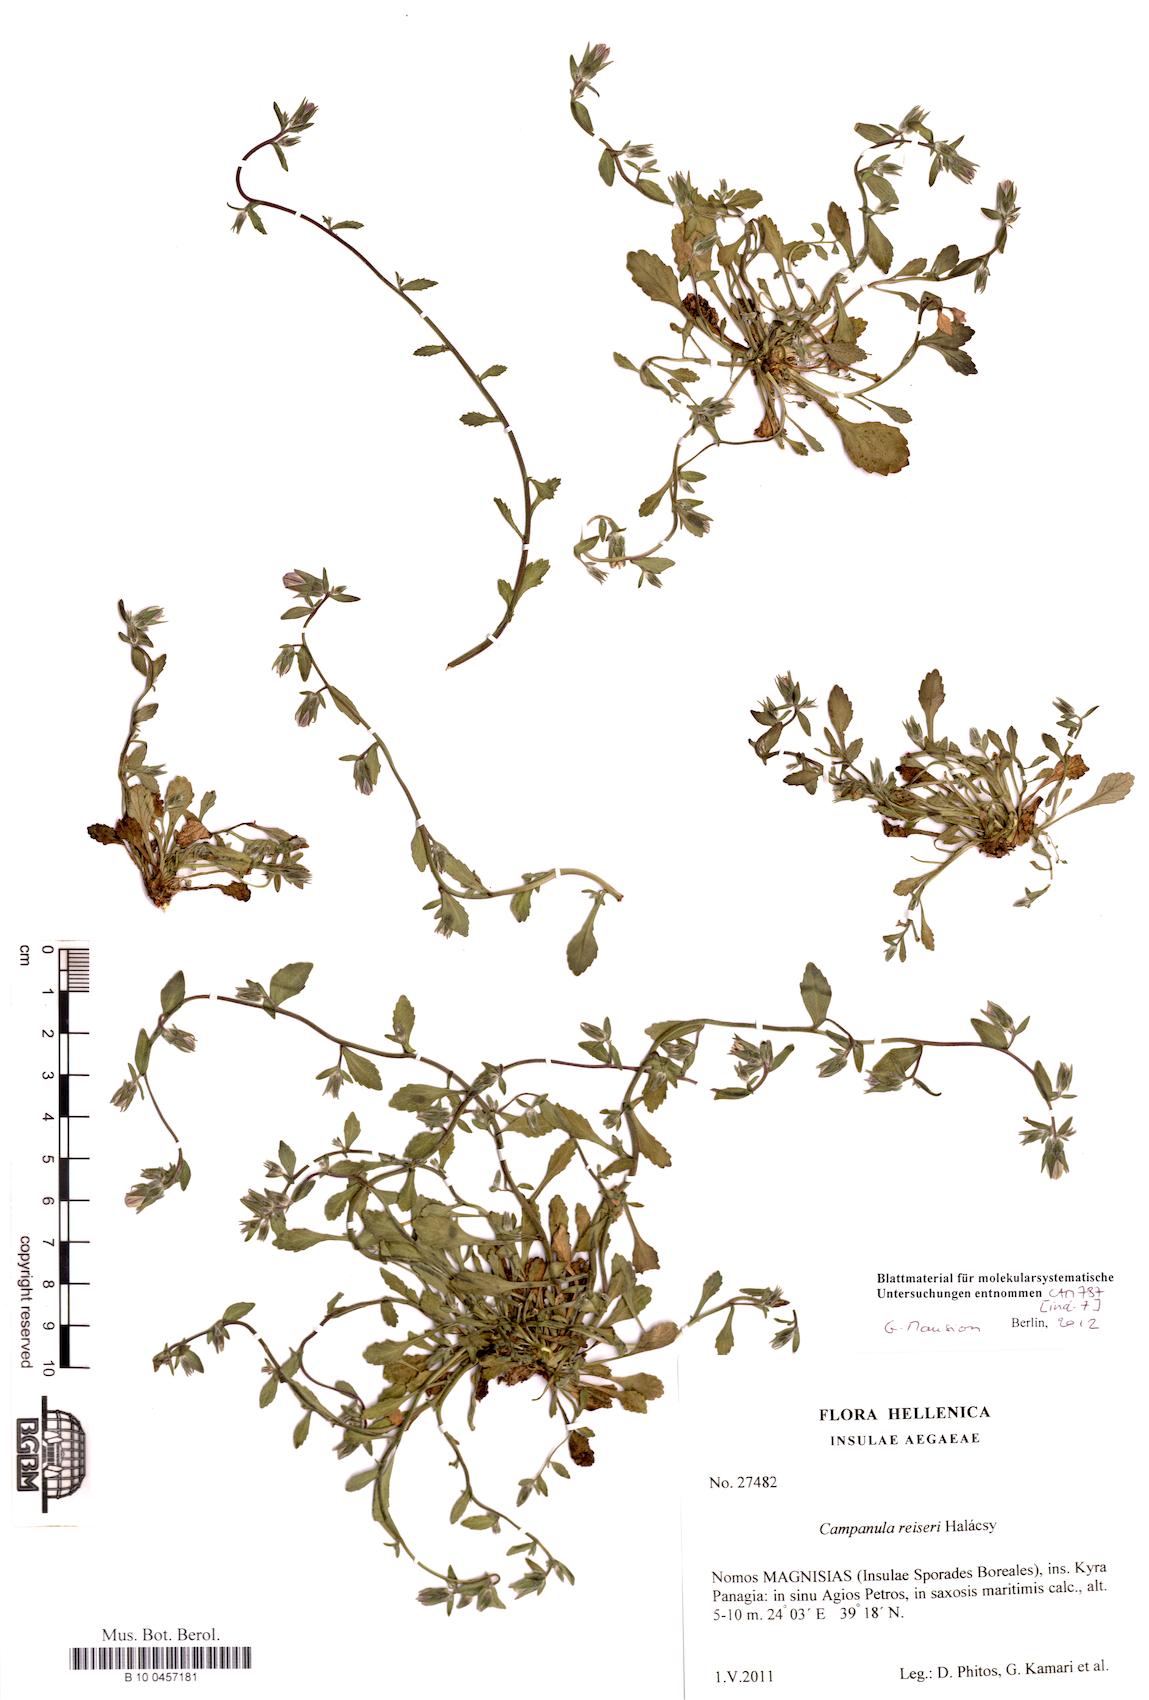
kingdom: Plantae
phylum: Tracheophyta
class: Magnoliopsida
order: Asterales
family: Campanulaceae
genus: Campanula
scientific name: Campanula reiseri
